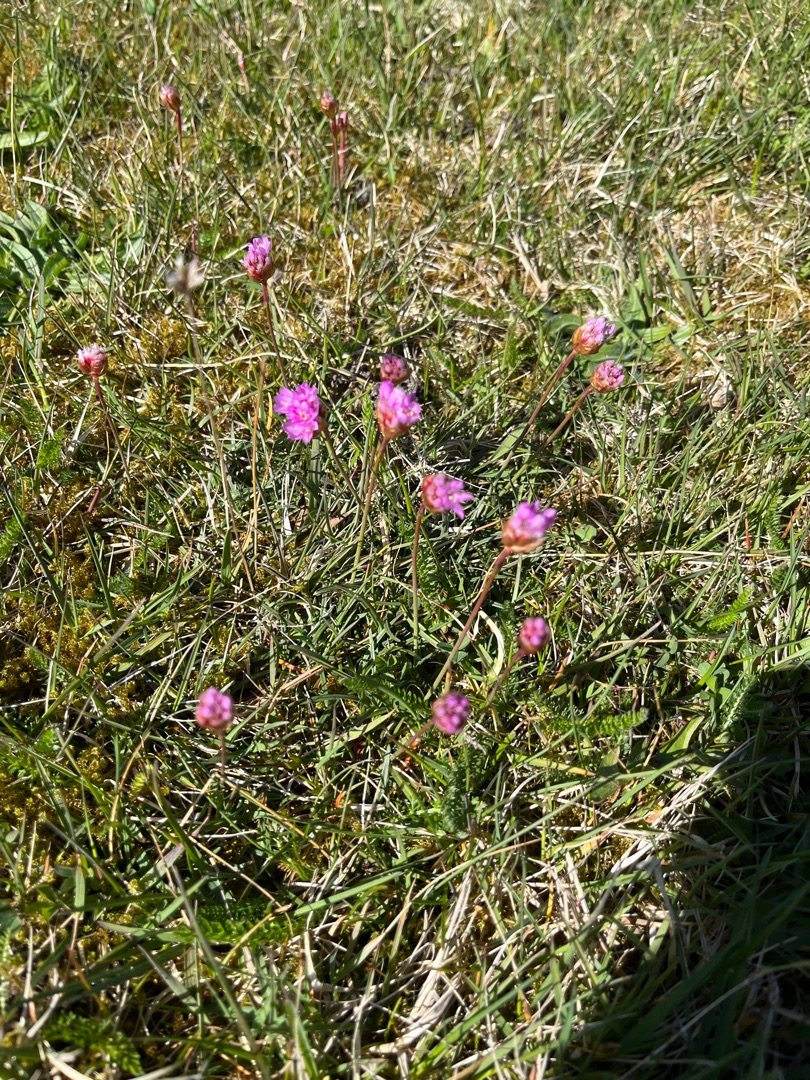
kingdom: Plantae
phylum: Tracheophyta
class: Magnoliopsida
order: Caryophyllales
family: Plumbaginaceae
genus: Armeria
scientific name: Armeria maritima
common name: Engelskgræs
